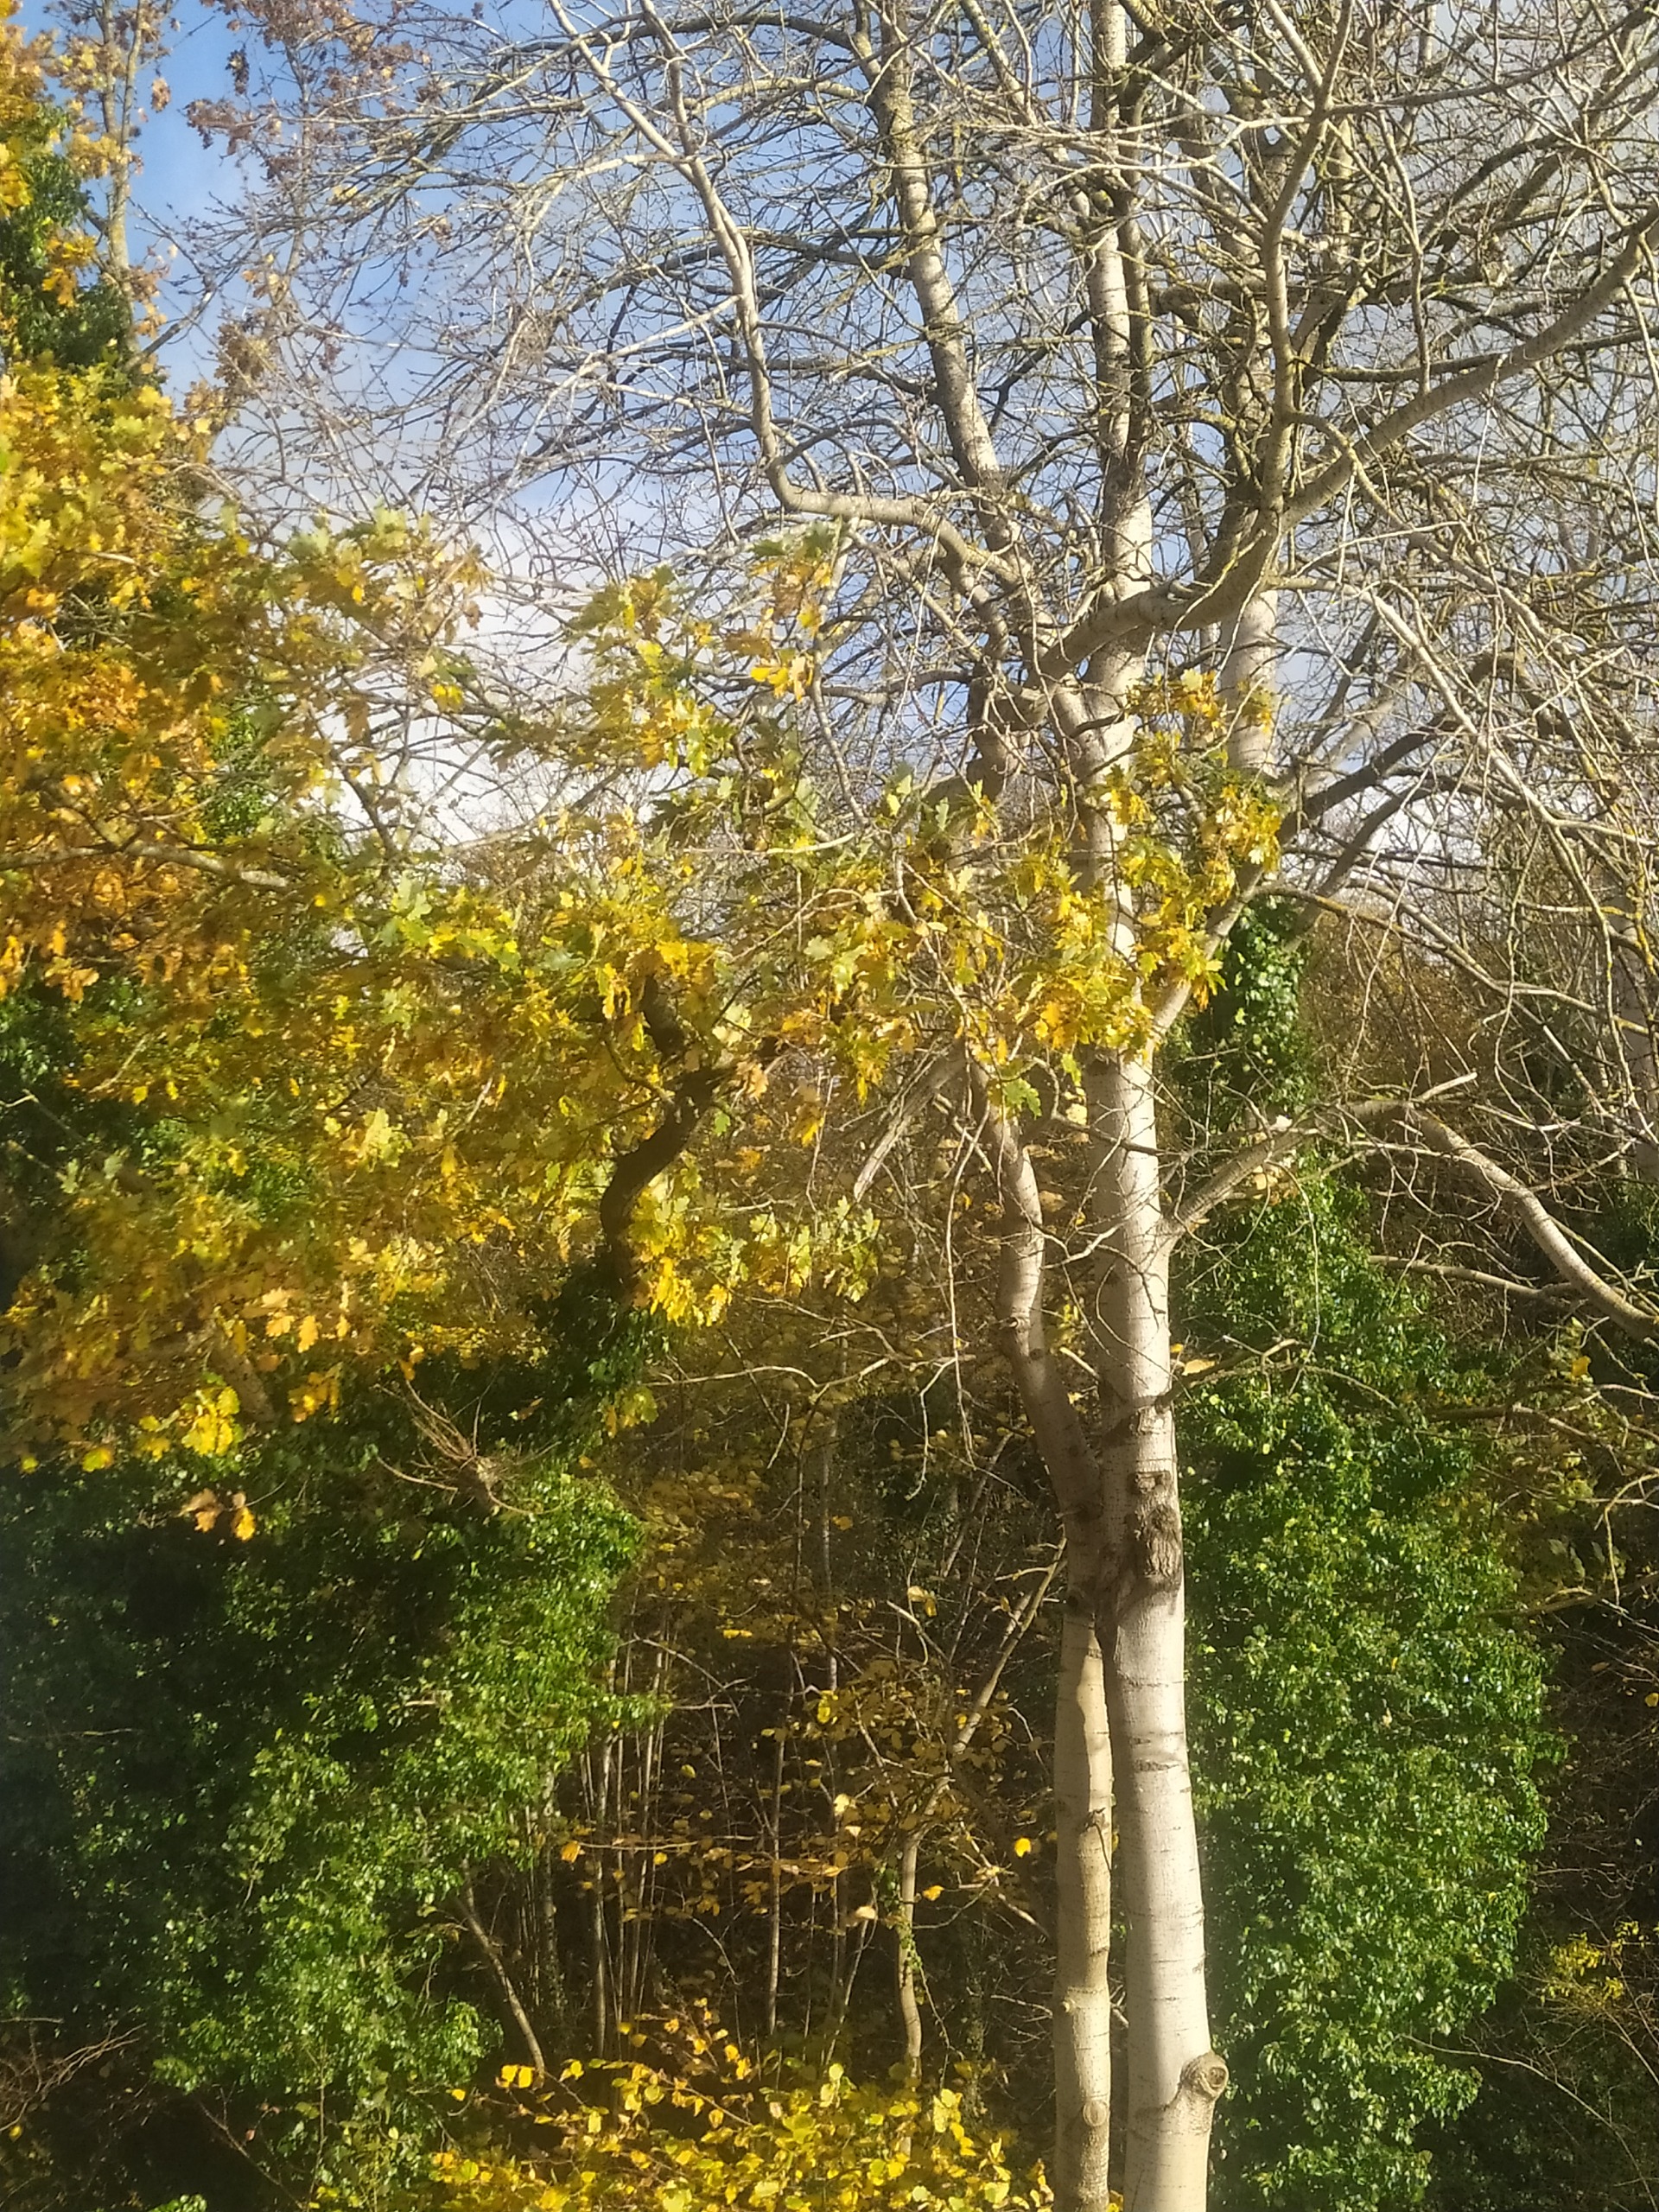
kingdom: Plantae
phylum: Tracheophyta
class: Magnoliopsida
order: Fagales
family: Fagaceae
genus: Quercus
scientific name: Quercus robur
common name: Stilk-eg/almindelig eg
